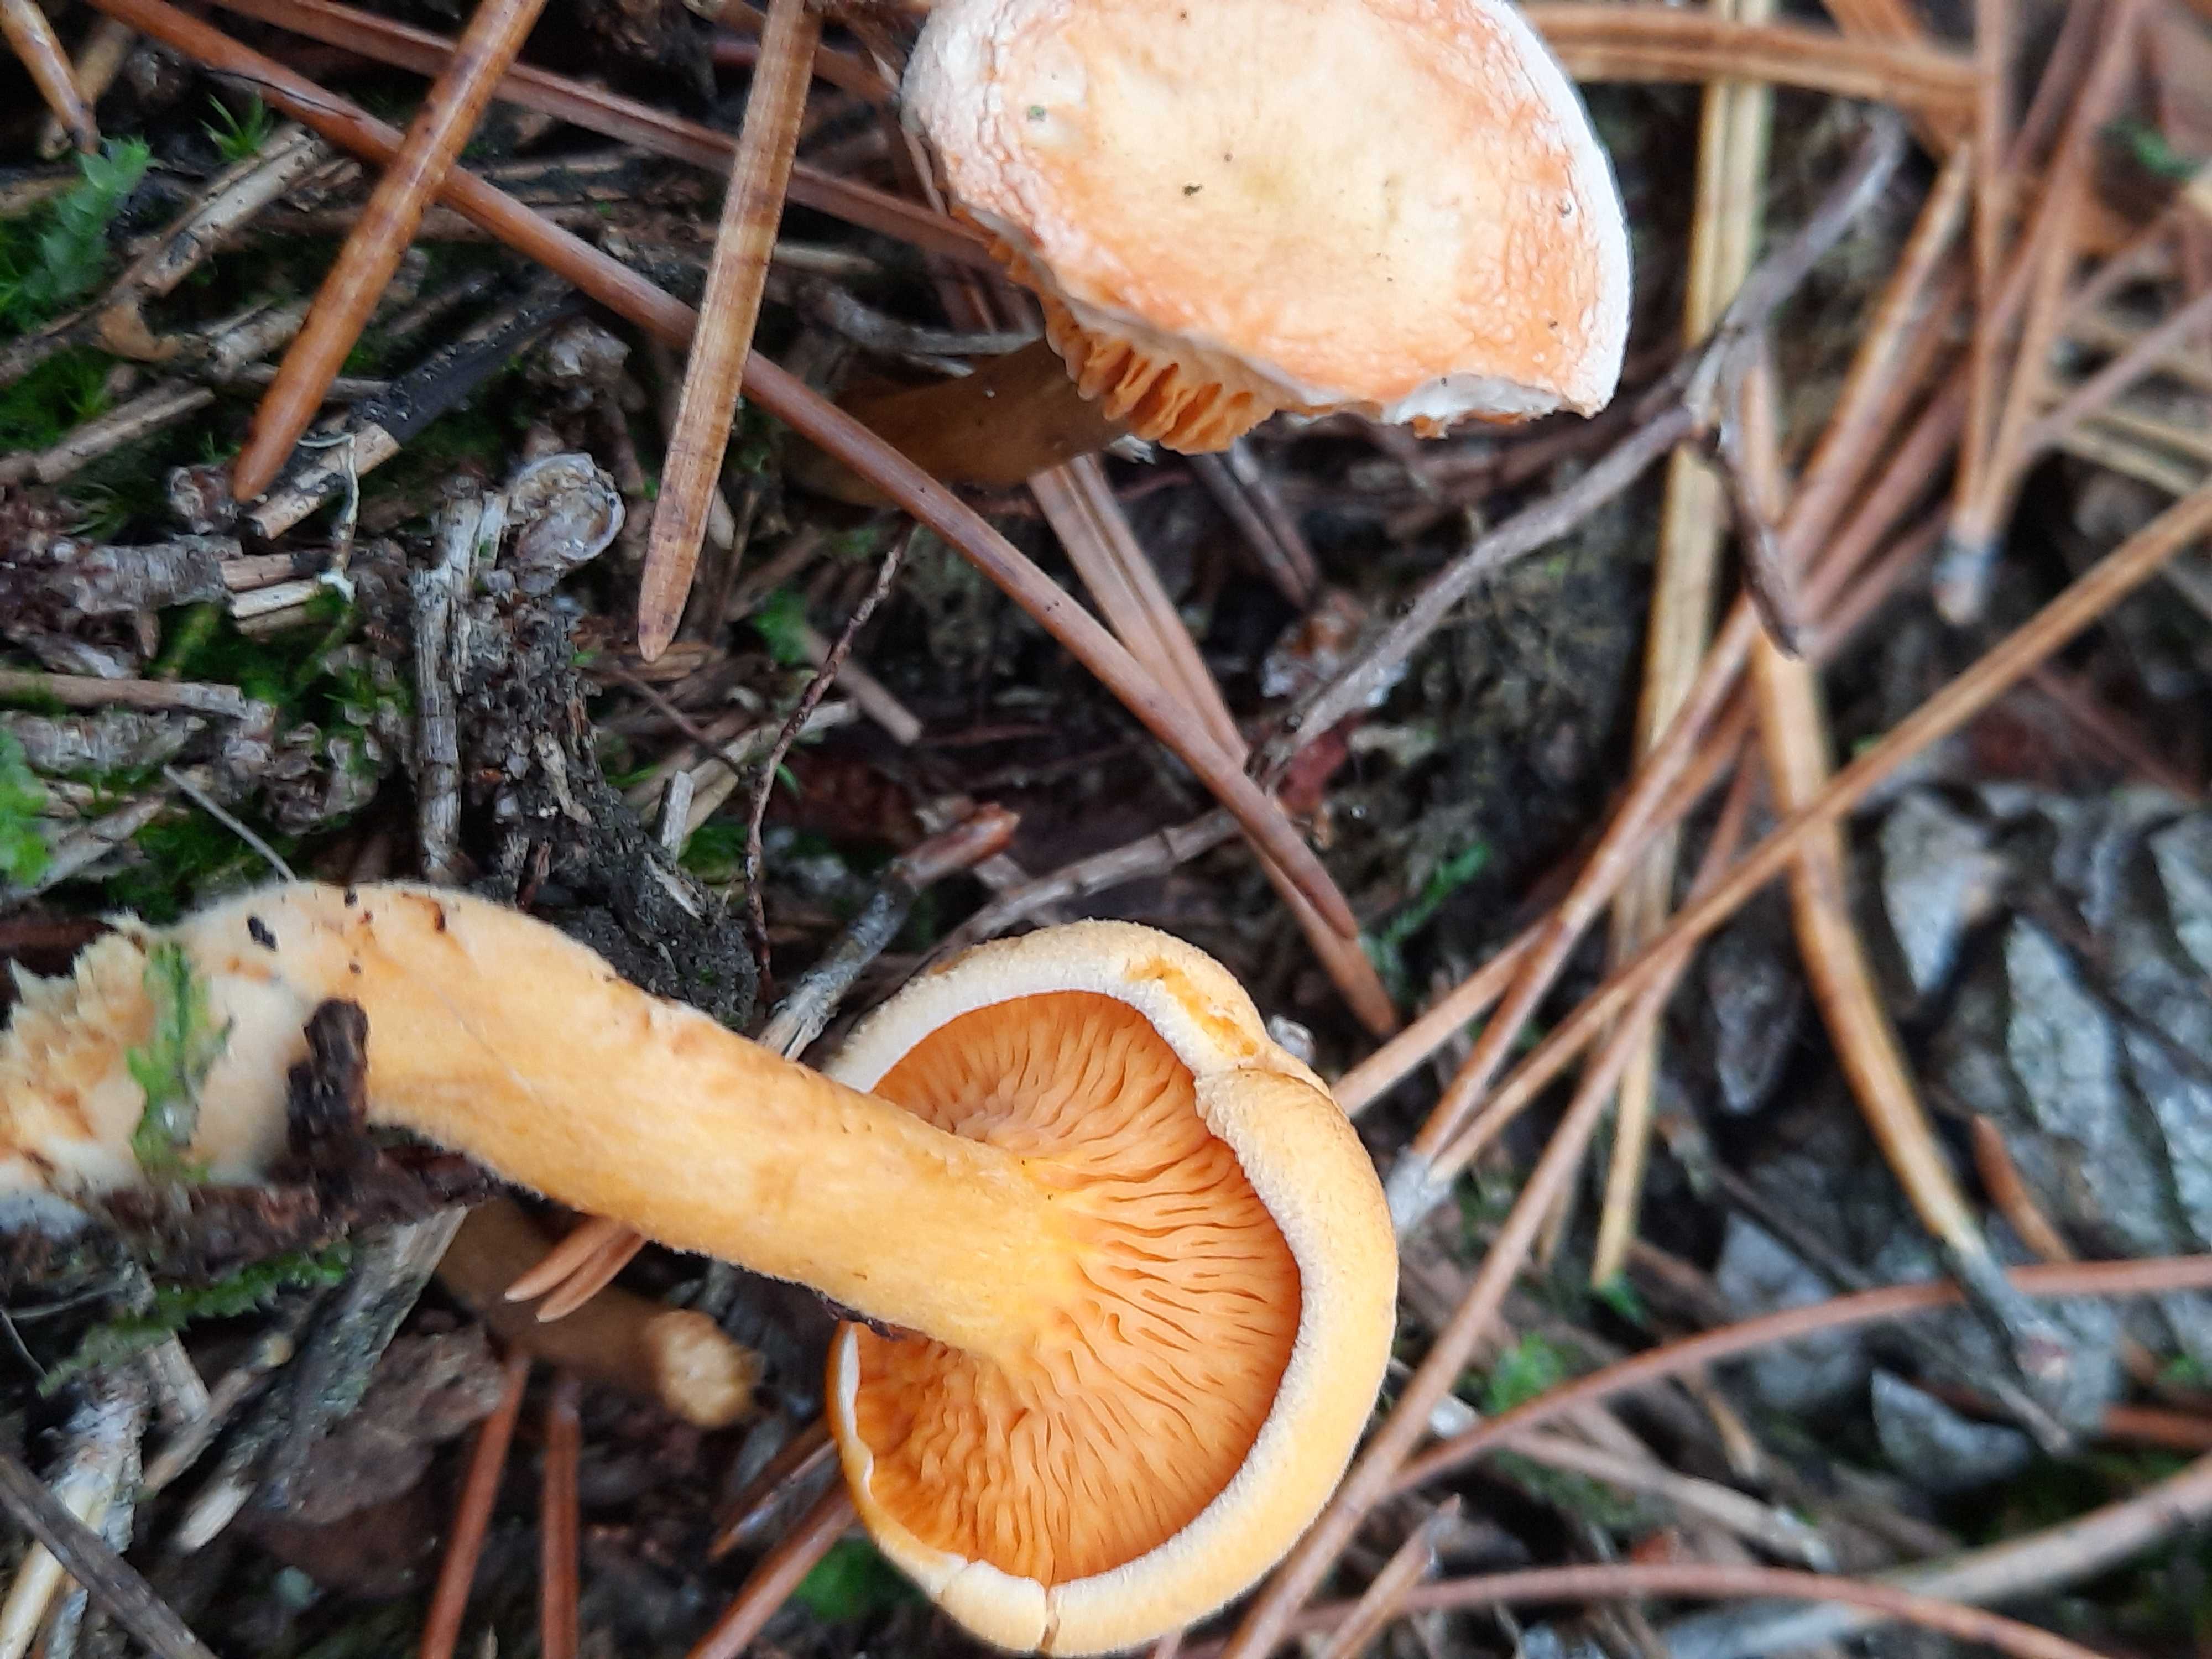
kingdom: Fungi
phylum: Basidiomycota
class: Agaricomycetes
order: Boletales
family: Hygrophoropsidaceae
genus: Hygrophoropsis
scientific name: Hygrophoropsis aurantiaca
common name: almindelig orangekantarel
